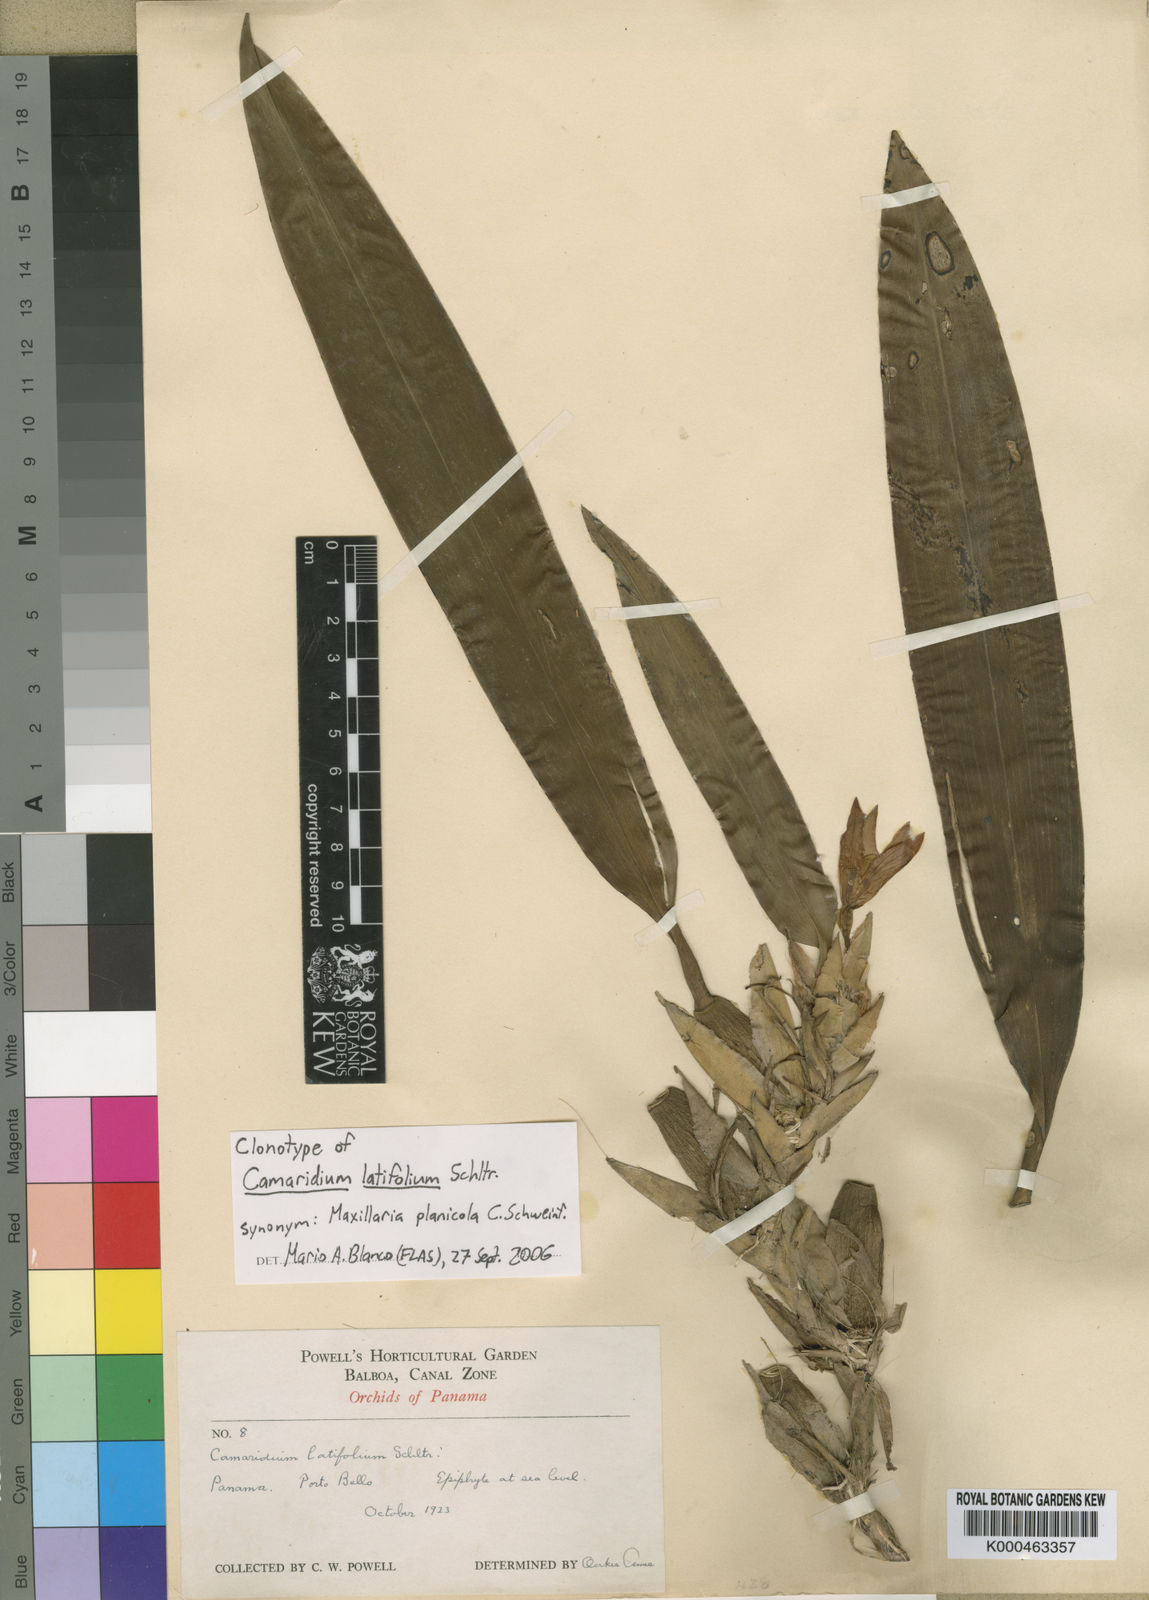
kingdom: Plantae
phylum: Tracheophyta
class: Liliopsida
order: Asparagales
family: Orchidaceae
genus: Maxillaria
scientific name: Maxillaria planicola
